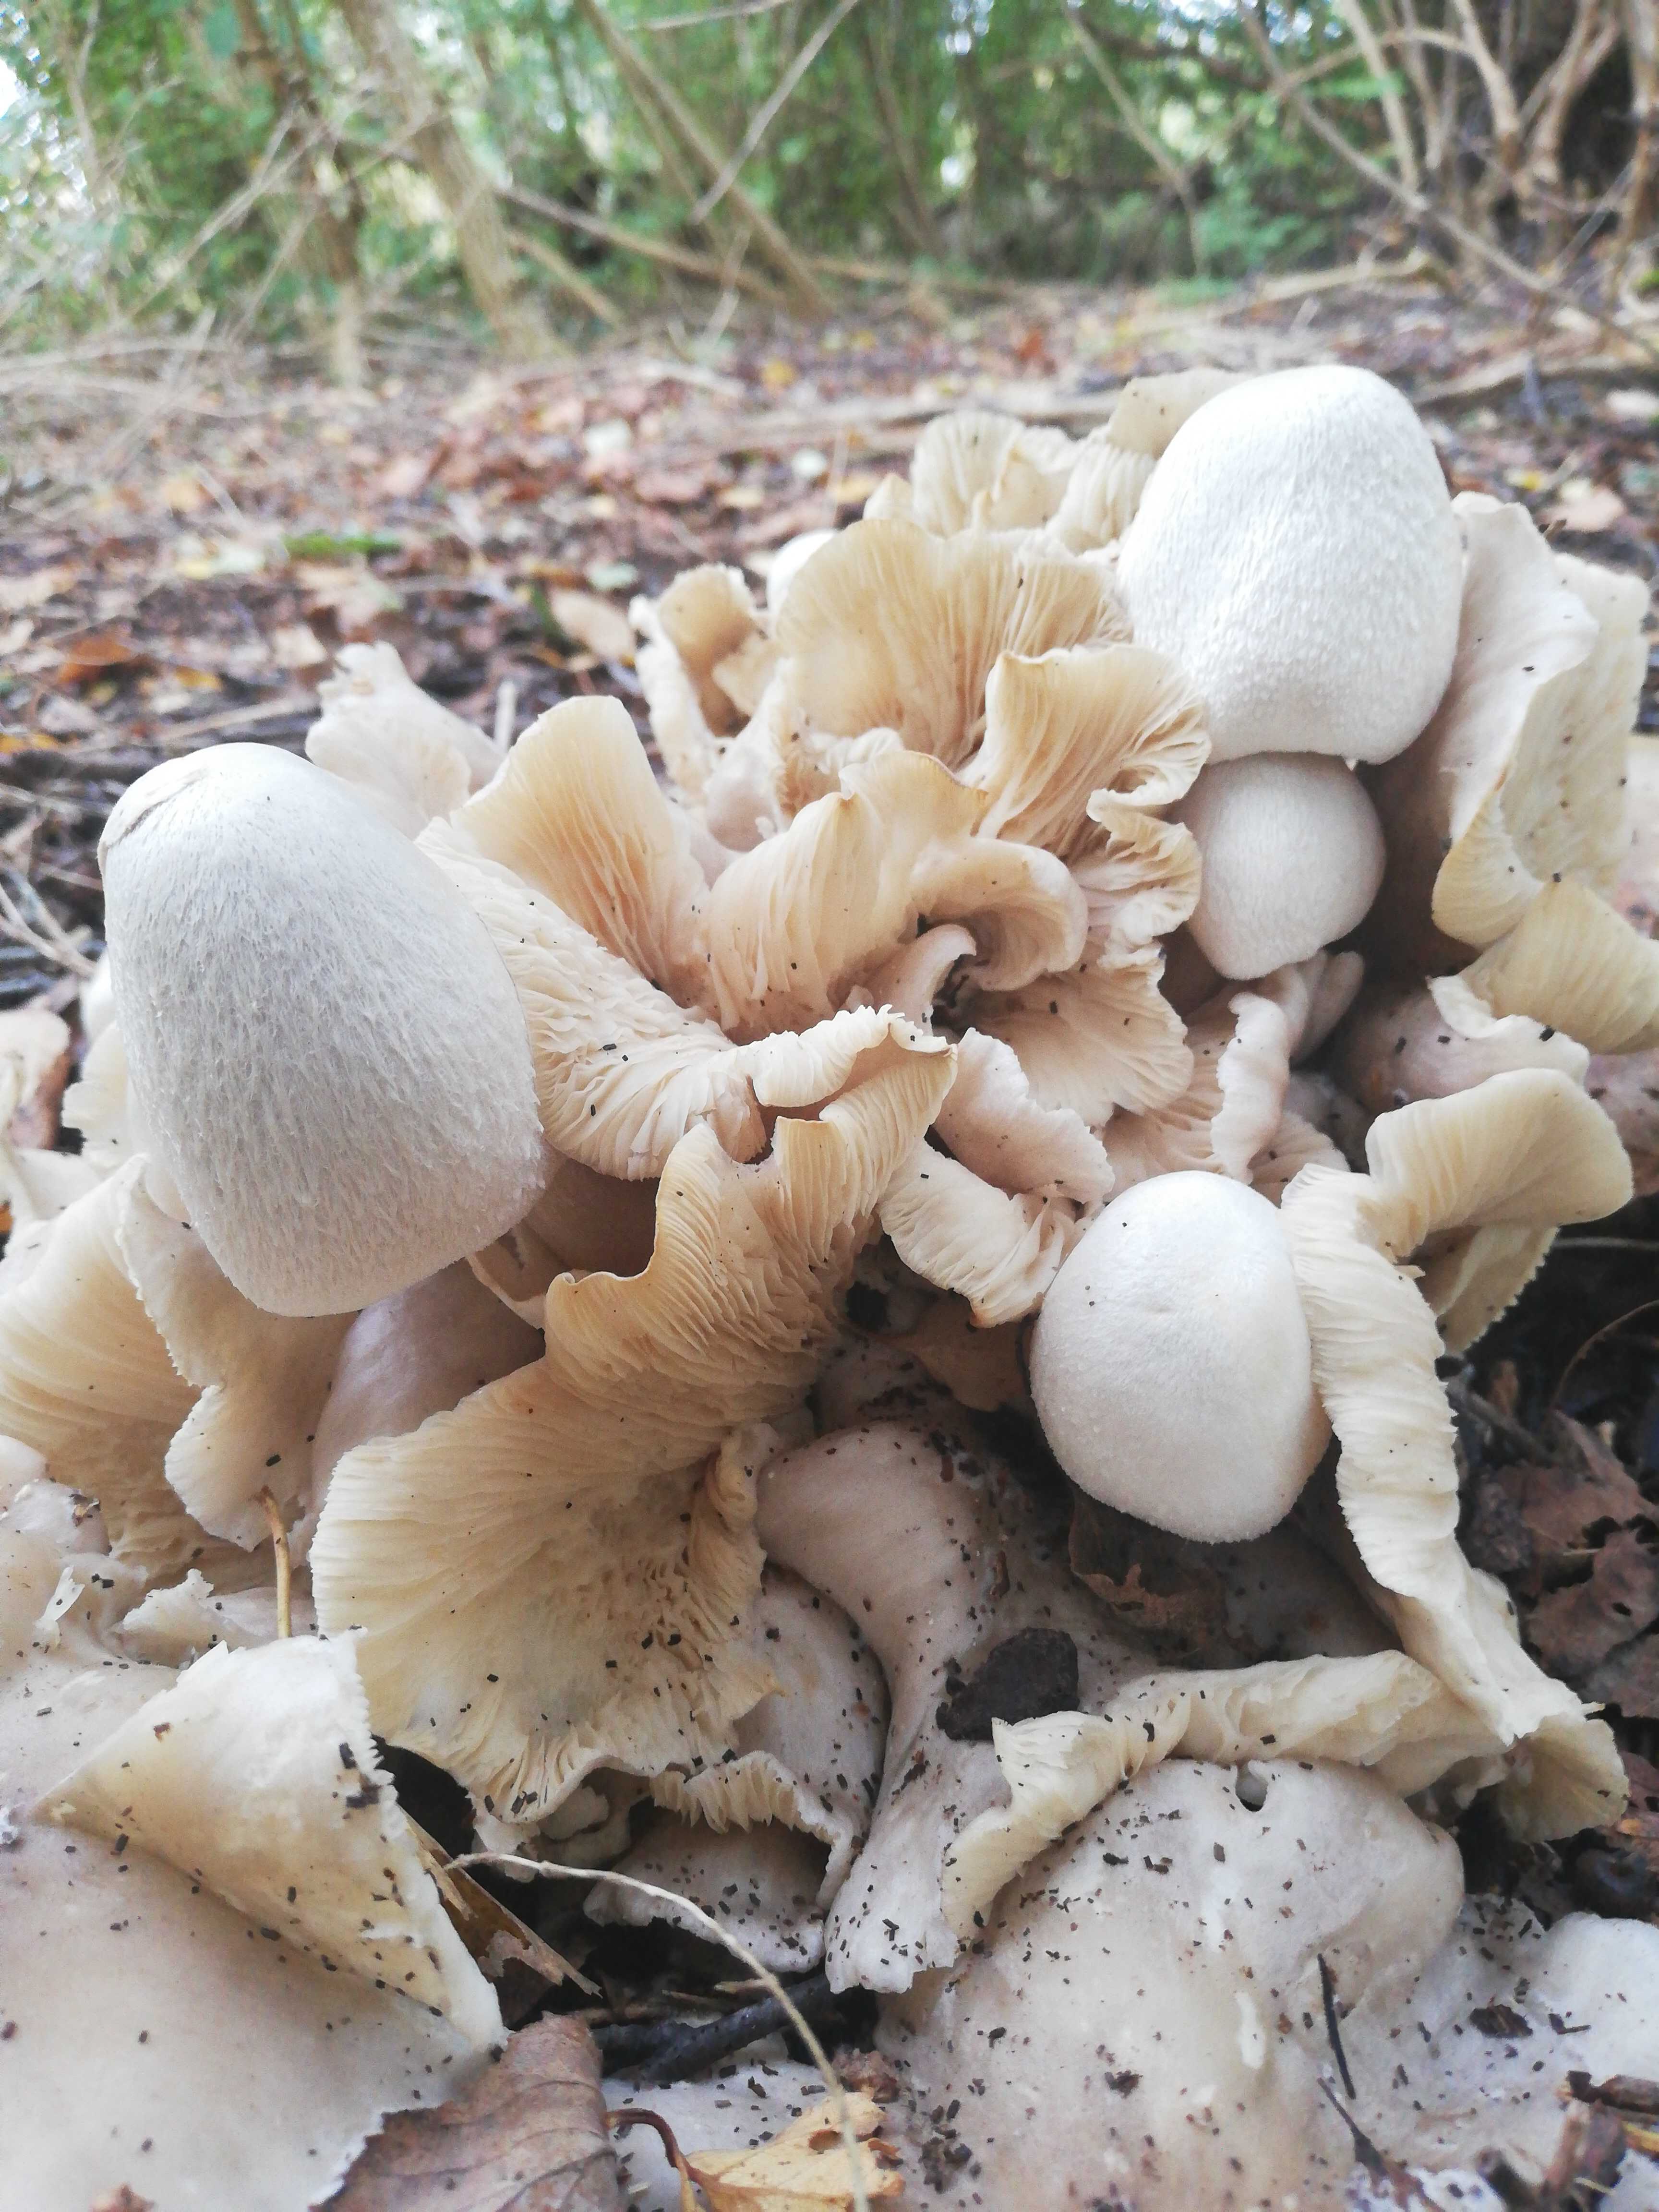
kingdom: Fungi
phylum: Basidiomycota
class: Agaricomycetes
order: Agaricales
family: Pluteaceae
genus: Volvariella
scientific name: Volvariella surrecta
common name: snyltende posesvamp
